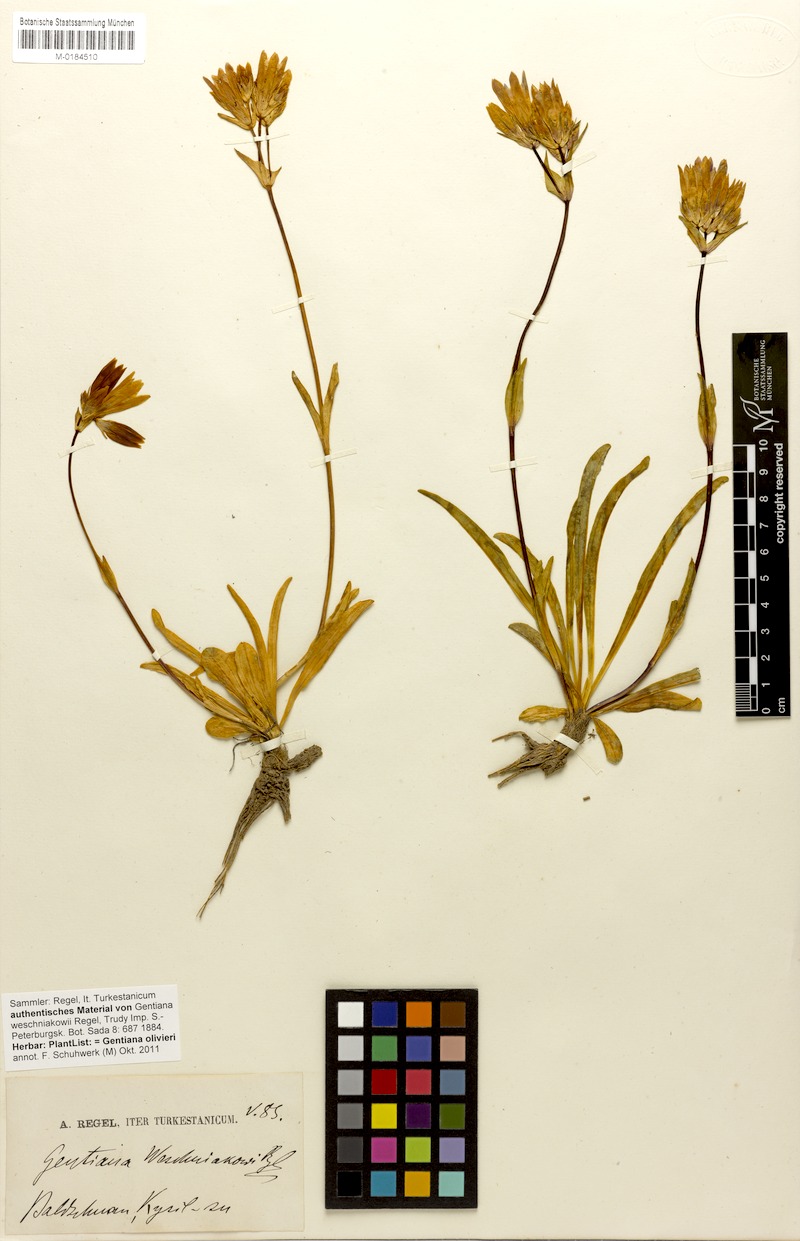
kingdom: Plantae
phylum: Tracheophyta
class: Magnoliopsida
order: Gentianales
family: Gentianaceae
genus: Gentiana
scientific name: Gentiana olivieri
